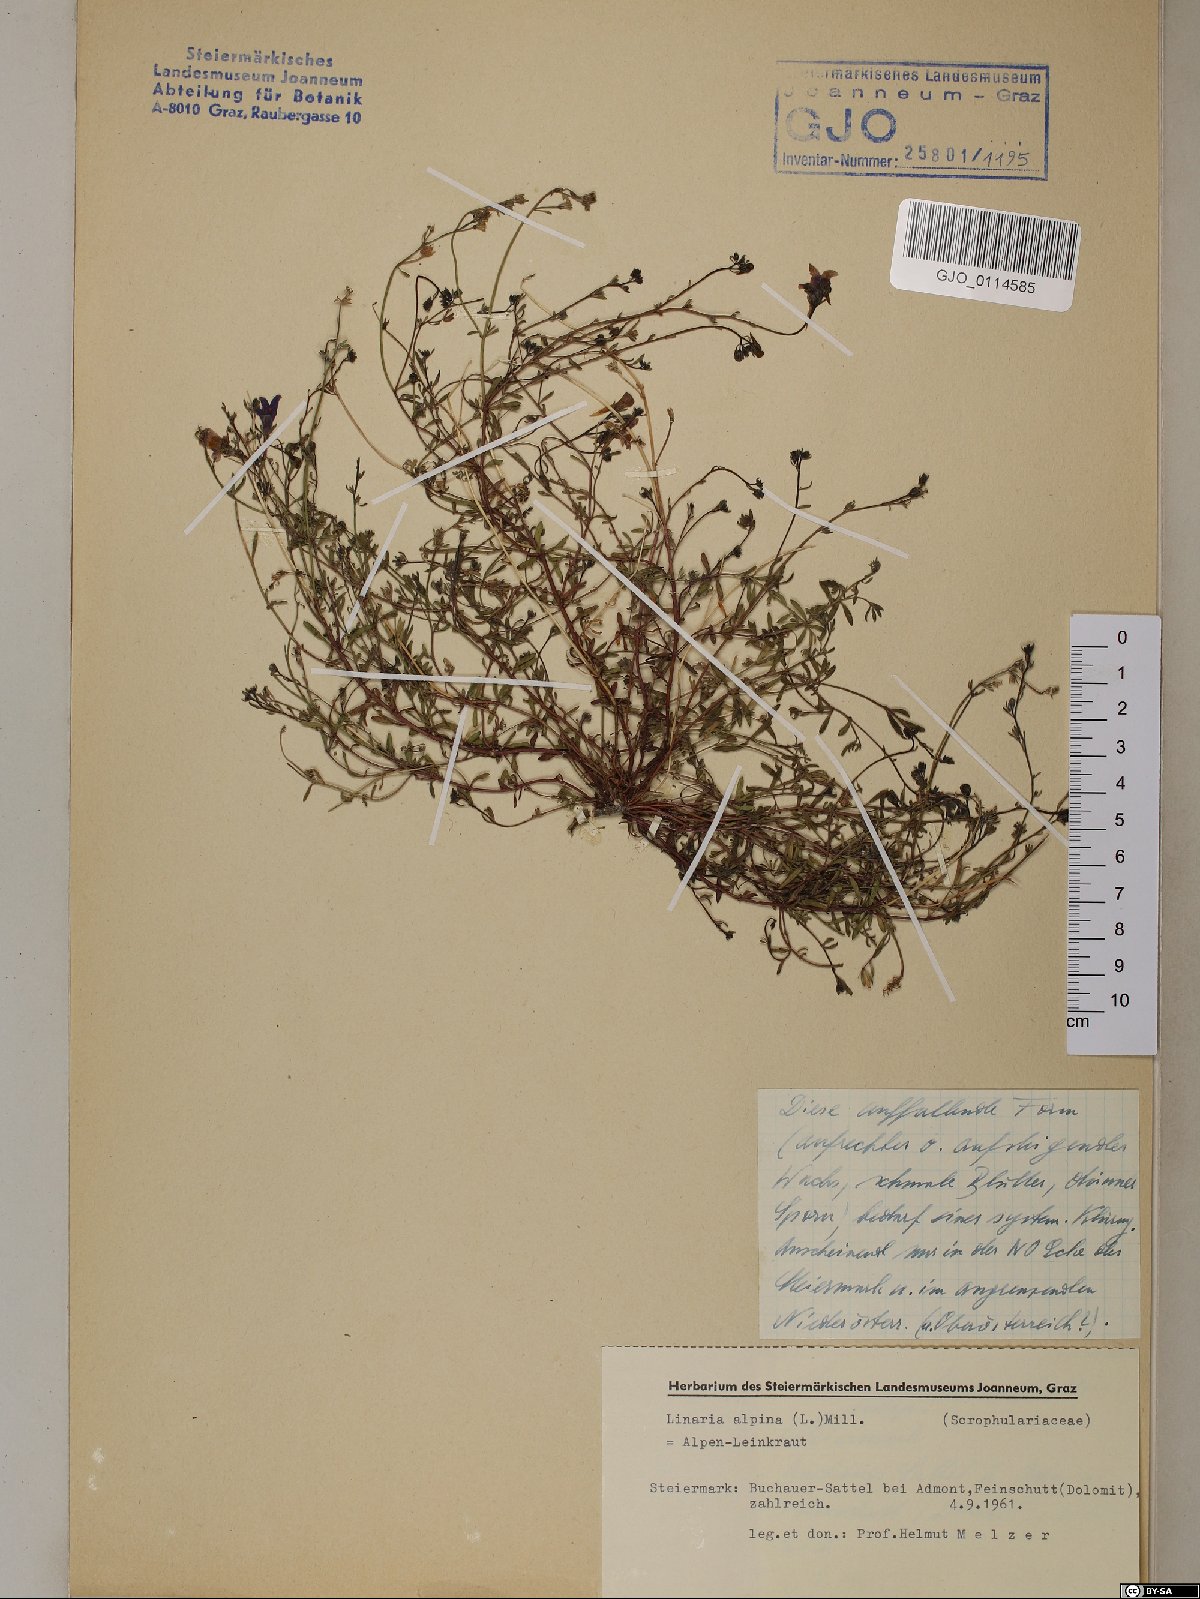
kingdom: Plantae
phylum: Tracheophyta
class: Magnoliopsida
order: Lamiales
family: Plantaginaceae
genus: Linaria
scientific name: Linaria alpina
